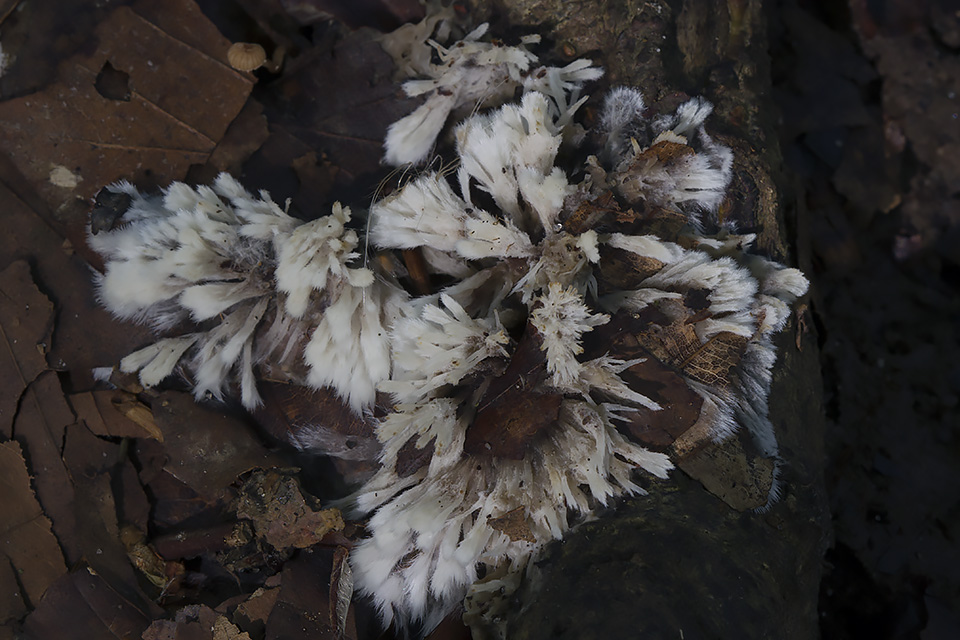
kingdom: Fungi
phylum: Basidiomycota
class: Agaricomycetes
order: Thelephorales
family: Thelephoraceae
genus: Thelephora
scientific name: Thelephora penicillata
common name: fladtrådt frynsesvamp
